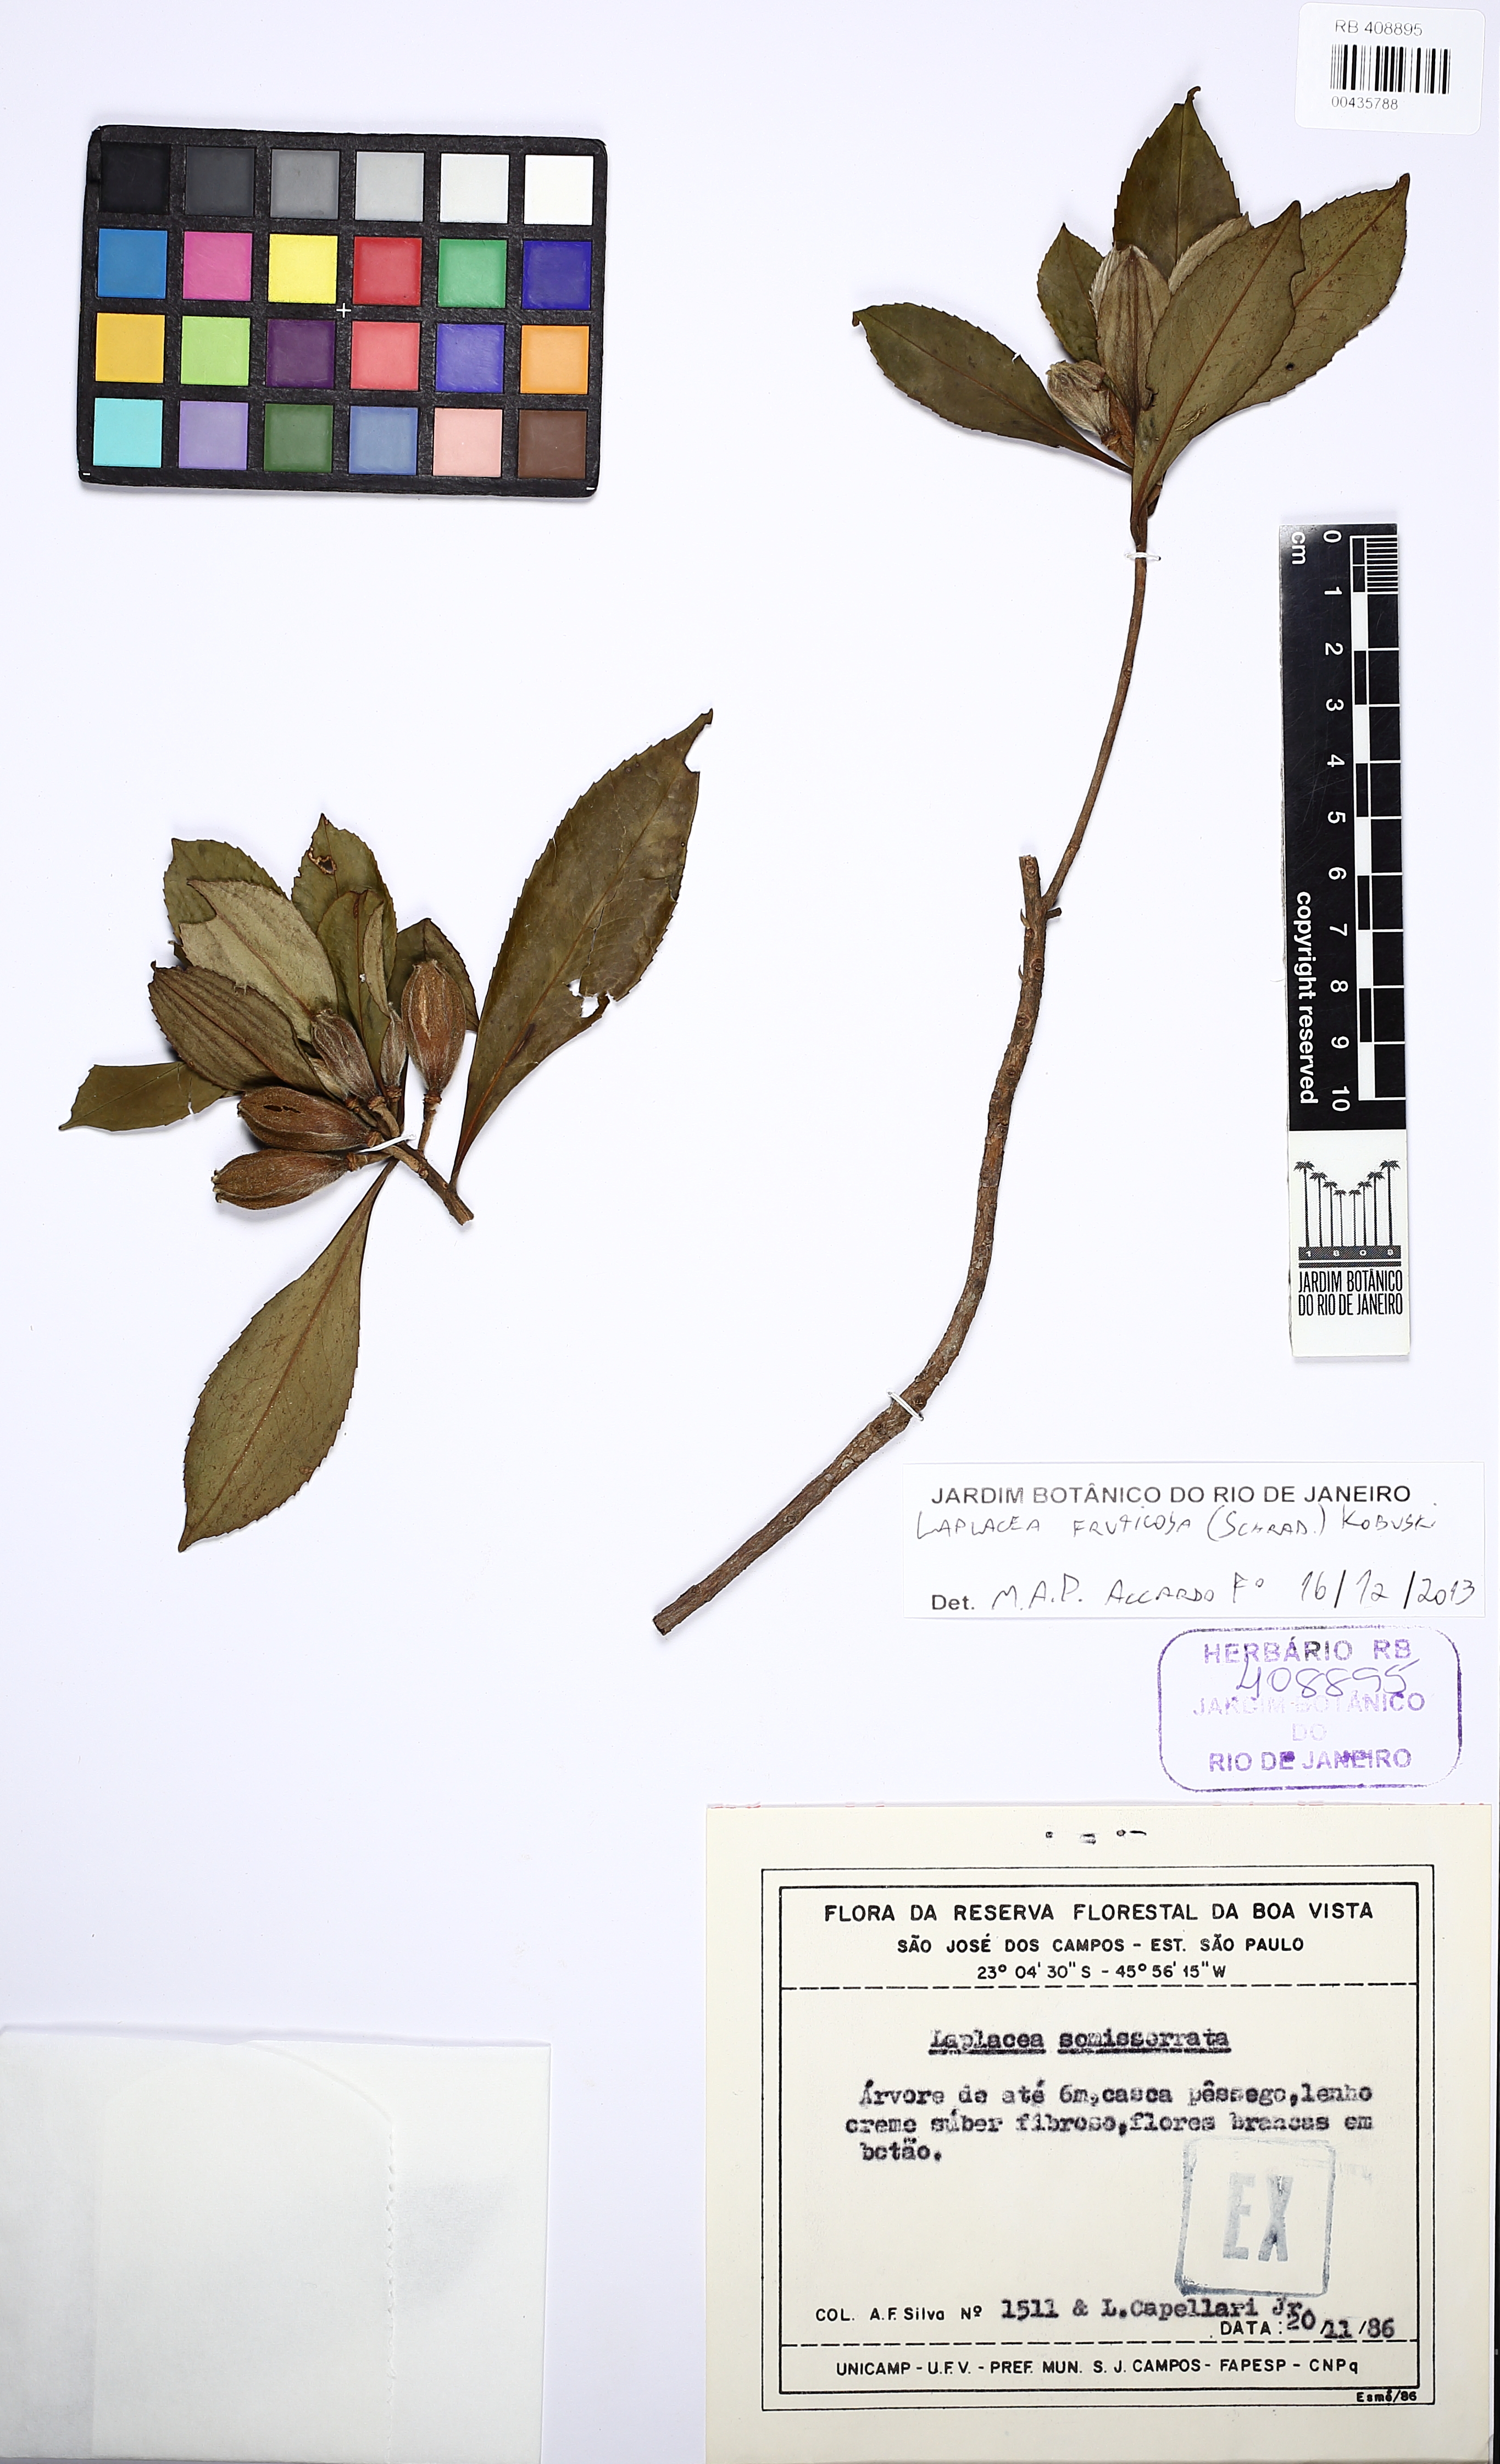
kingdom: Plantae
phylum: Tracheophyta
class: Magnoliopsida
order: Ericales
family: Theaceae
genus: Gordonia
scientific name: Gordonia fruticosa
